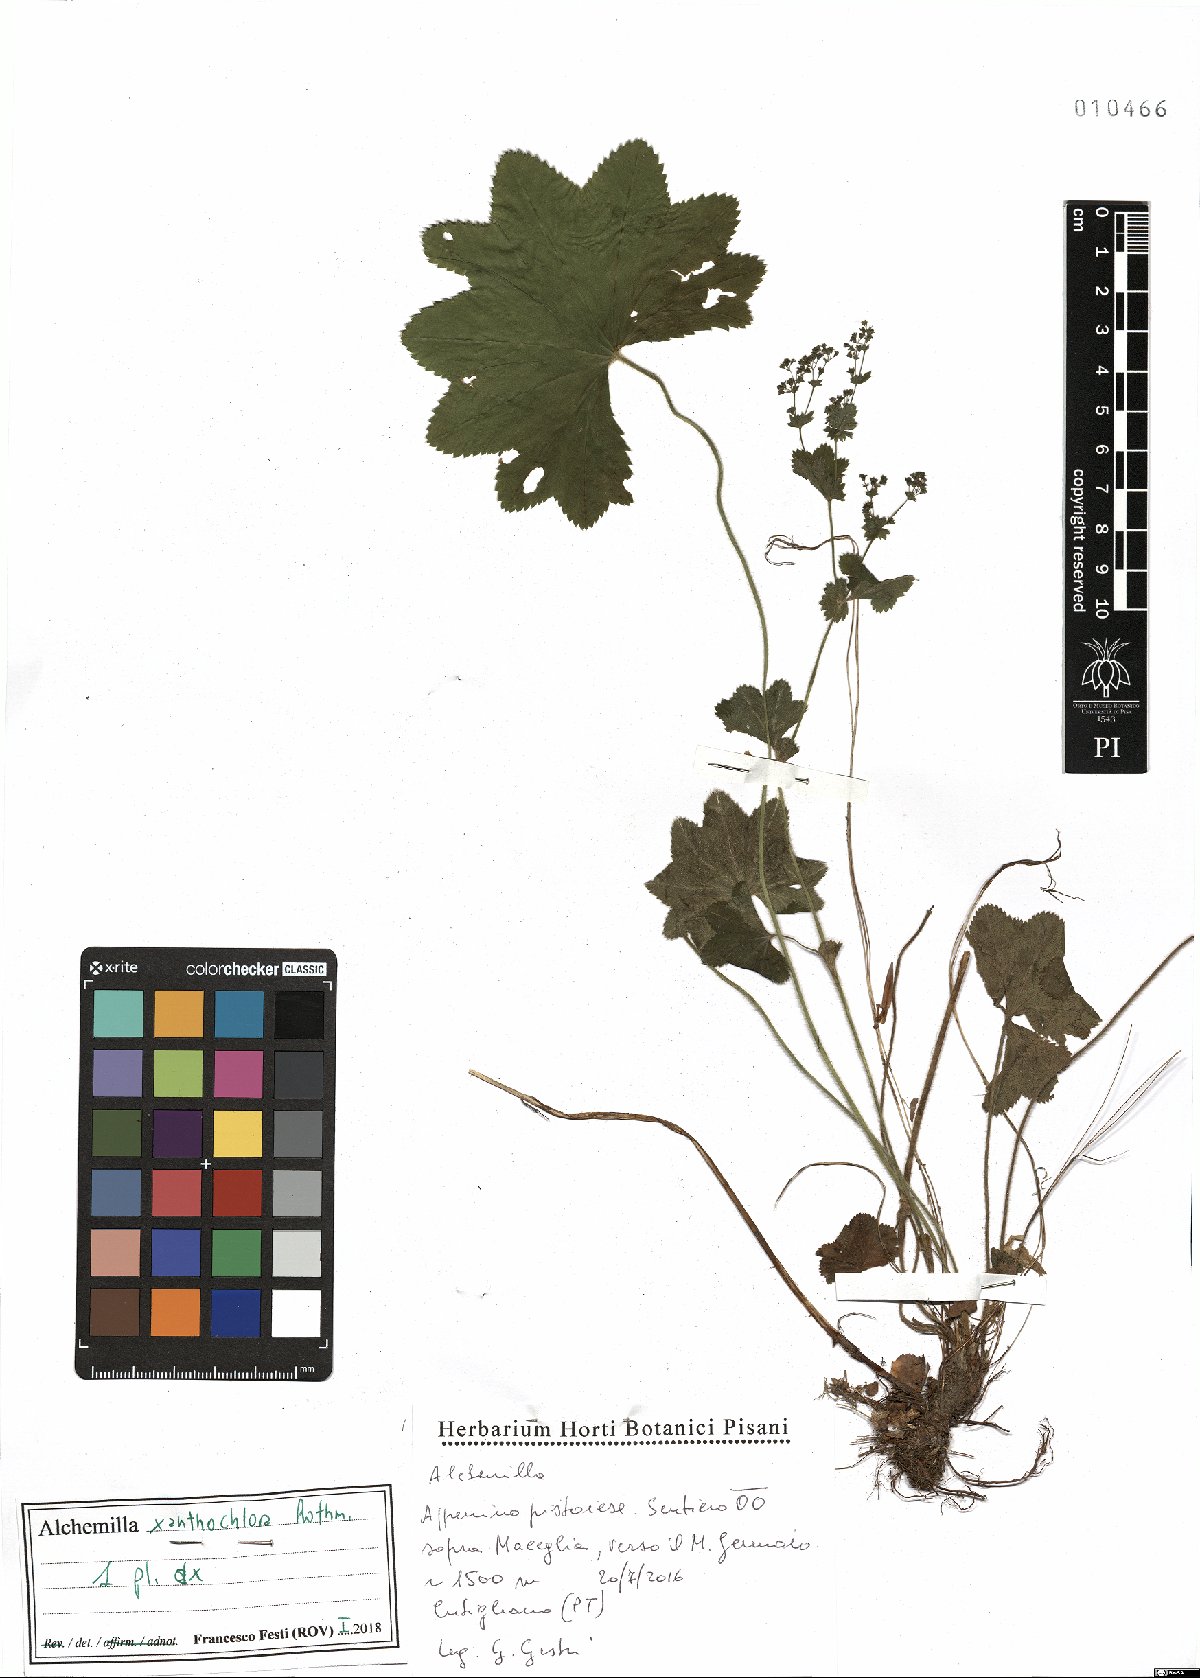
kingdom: Plantae
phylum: Tracheophyta
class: Magnoliopsida
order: Rosales
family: Rosaceae
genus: Alchemilla
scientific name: Alchemilla xanthochlora
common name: Intermediate lady's-mantle
